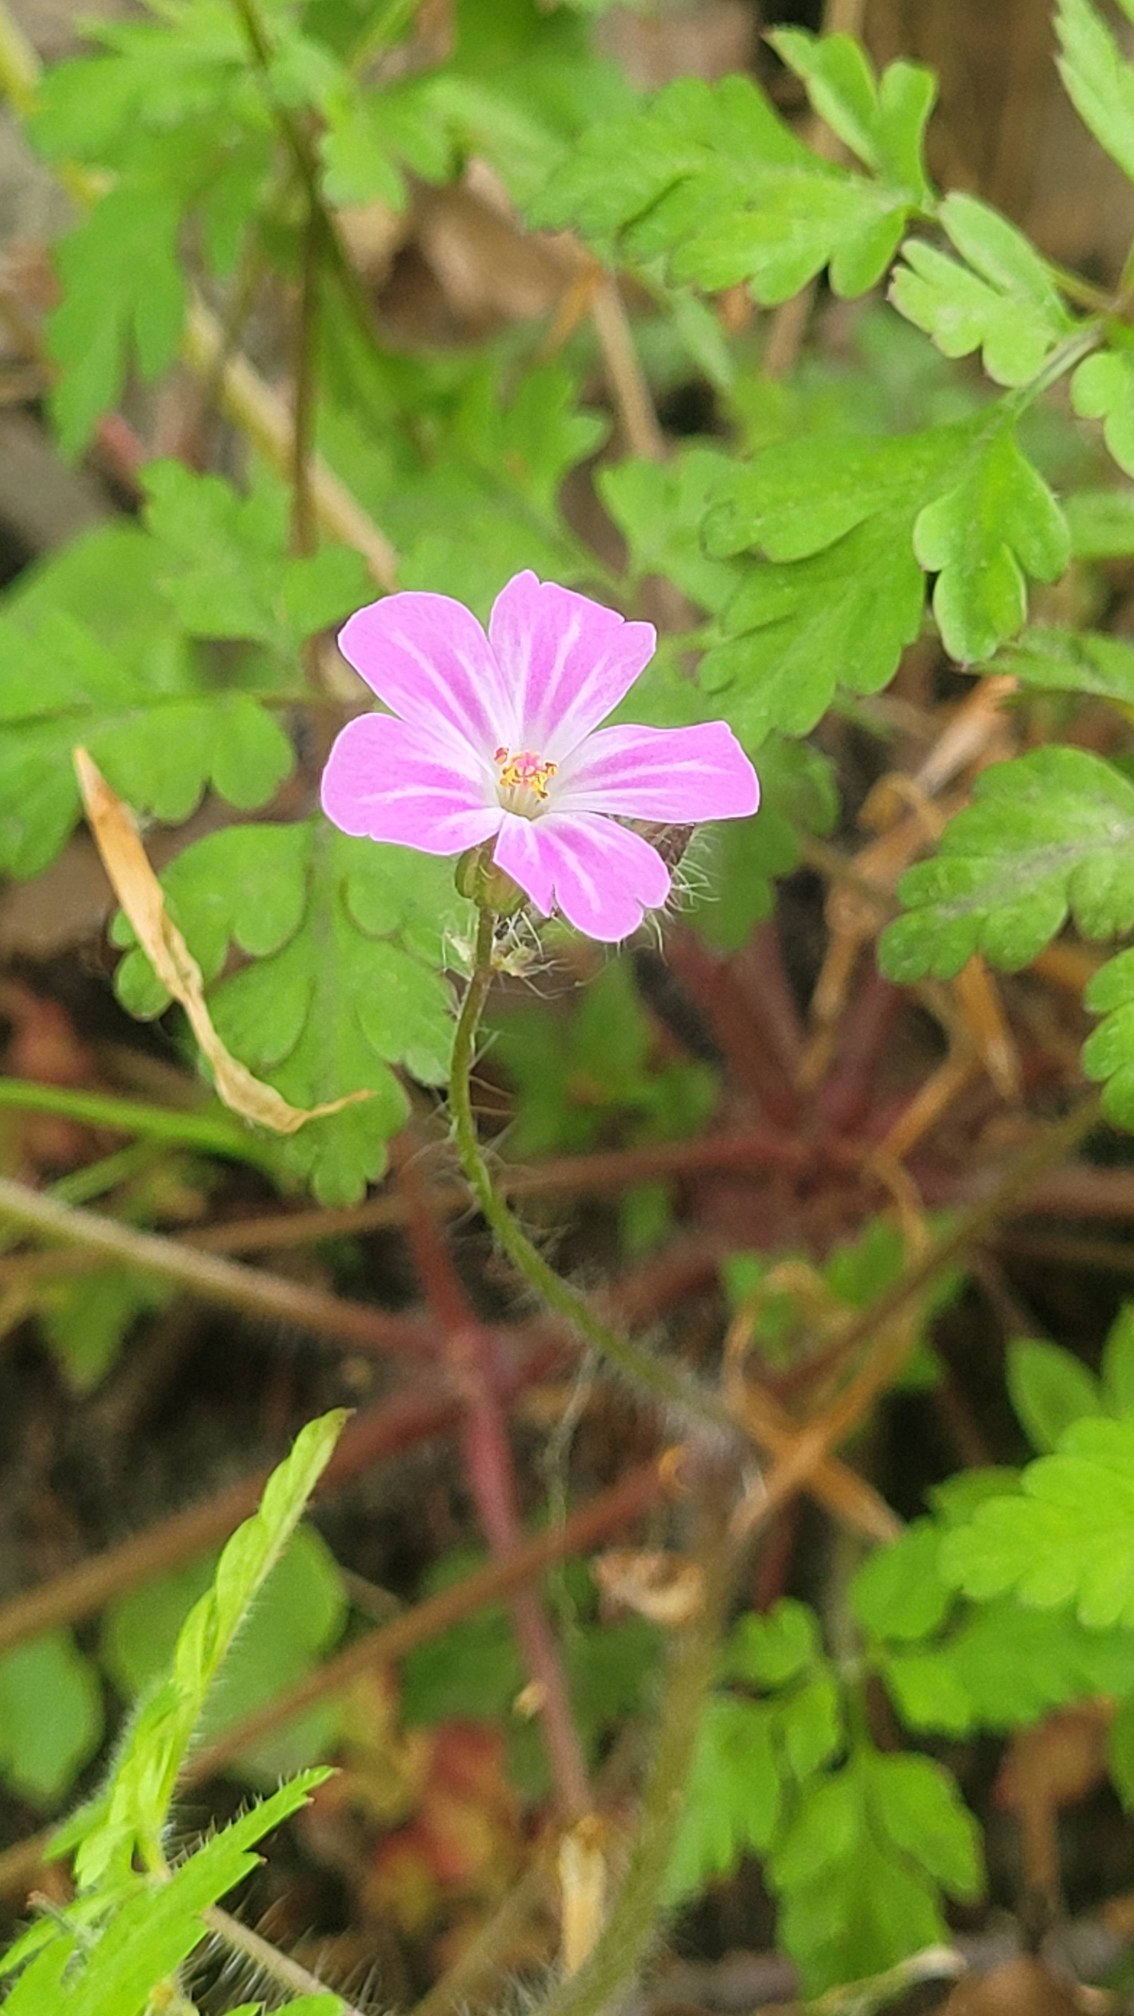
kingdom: Plantae
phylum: Tracheophyta
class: Magnoliopsida
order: Geraniales
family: Geraniaceae
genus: Geranium
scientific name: Geranium robertianum
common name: Stinkende storkenæb
